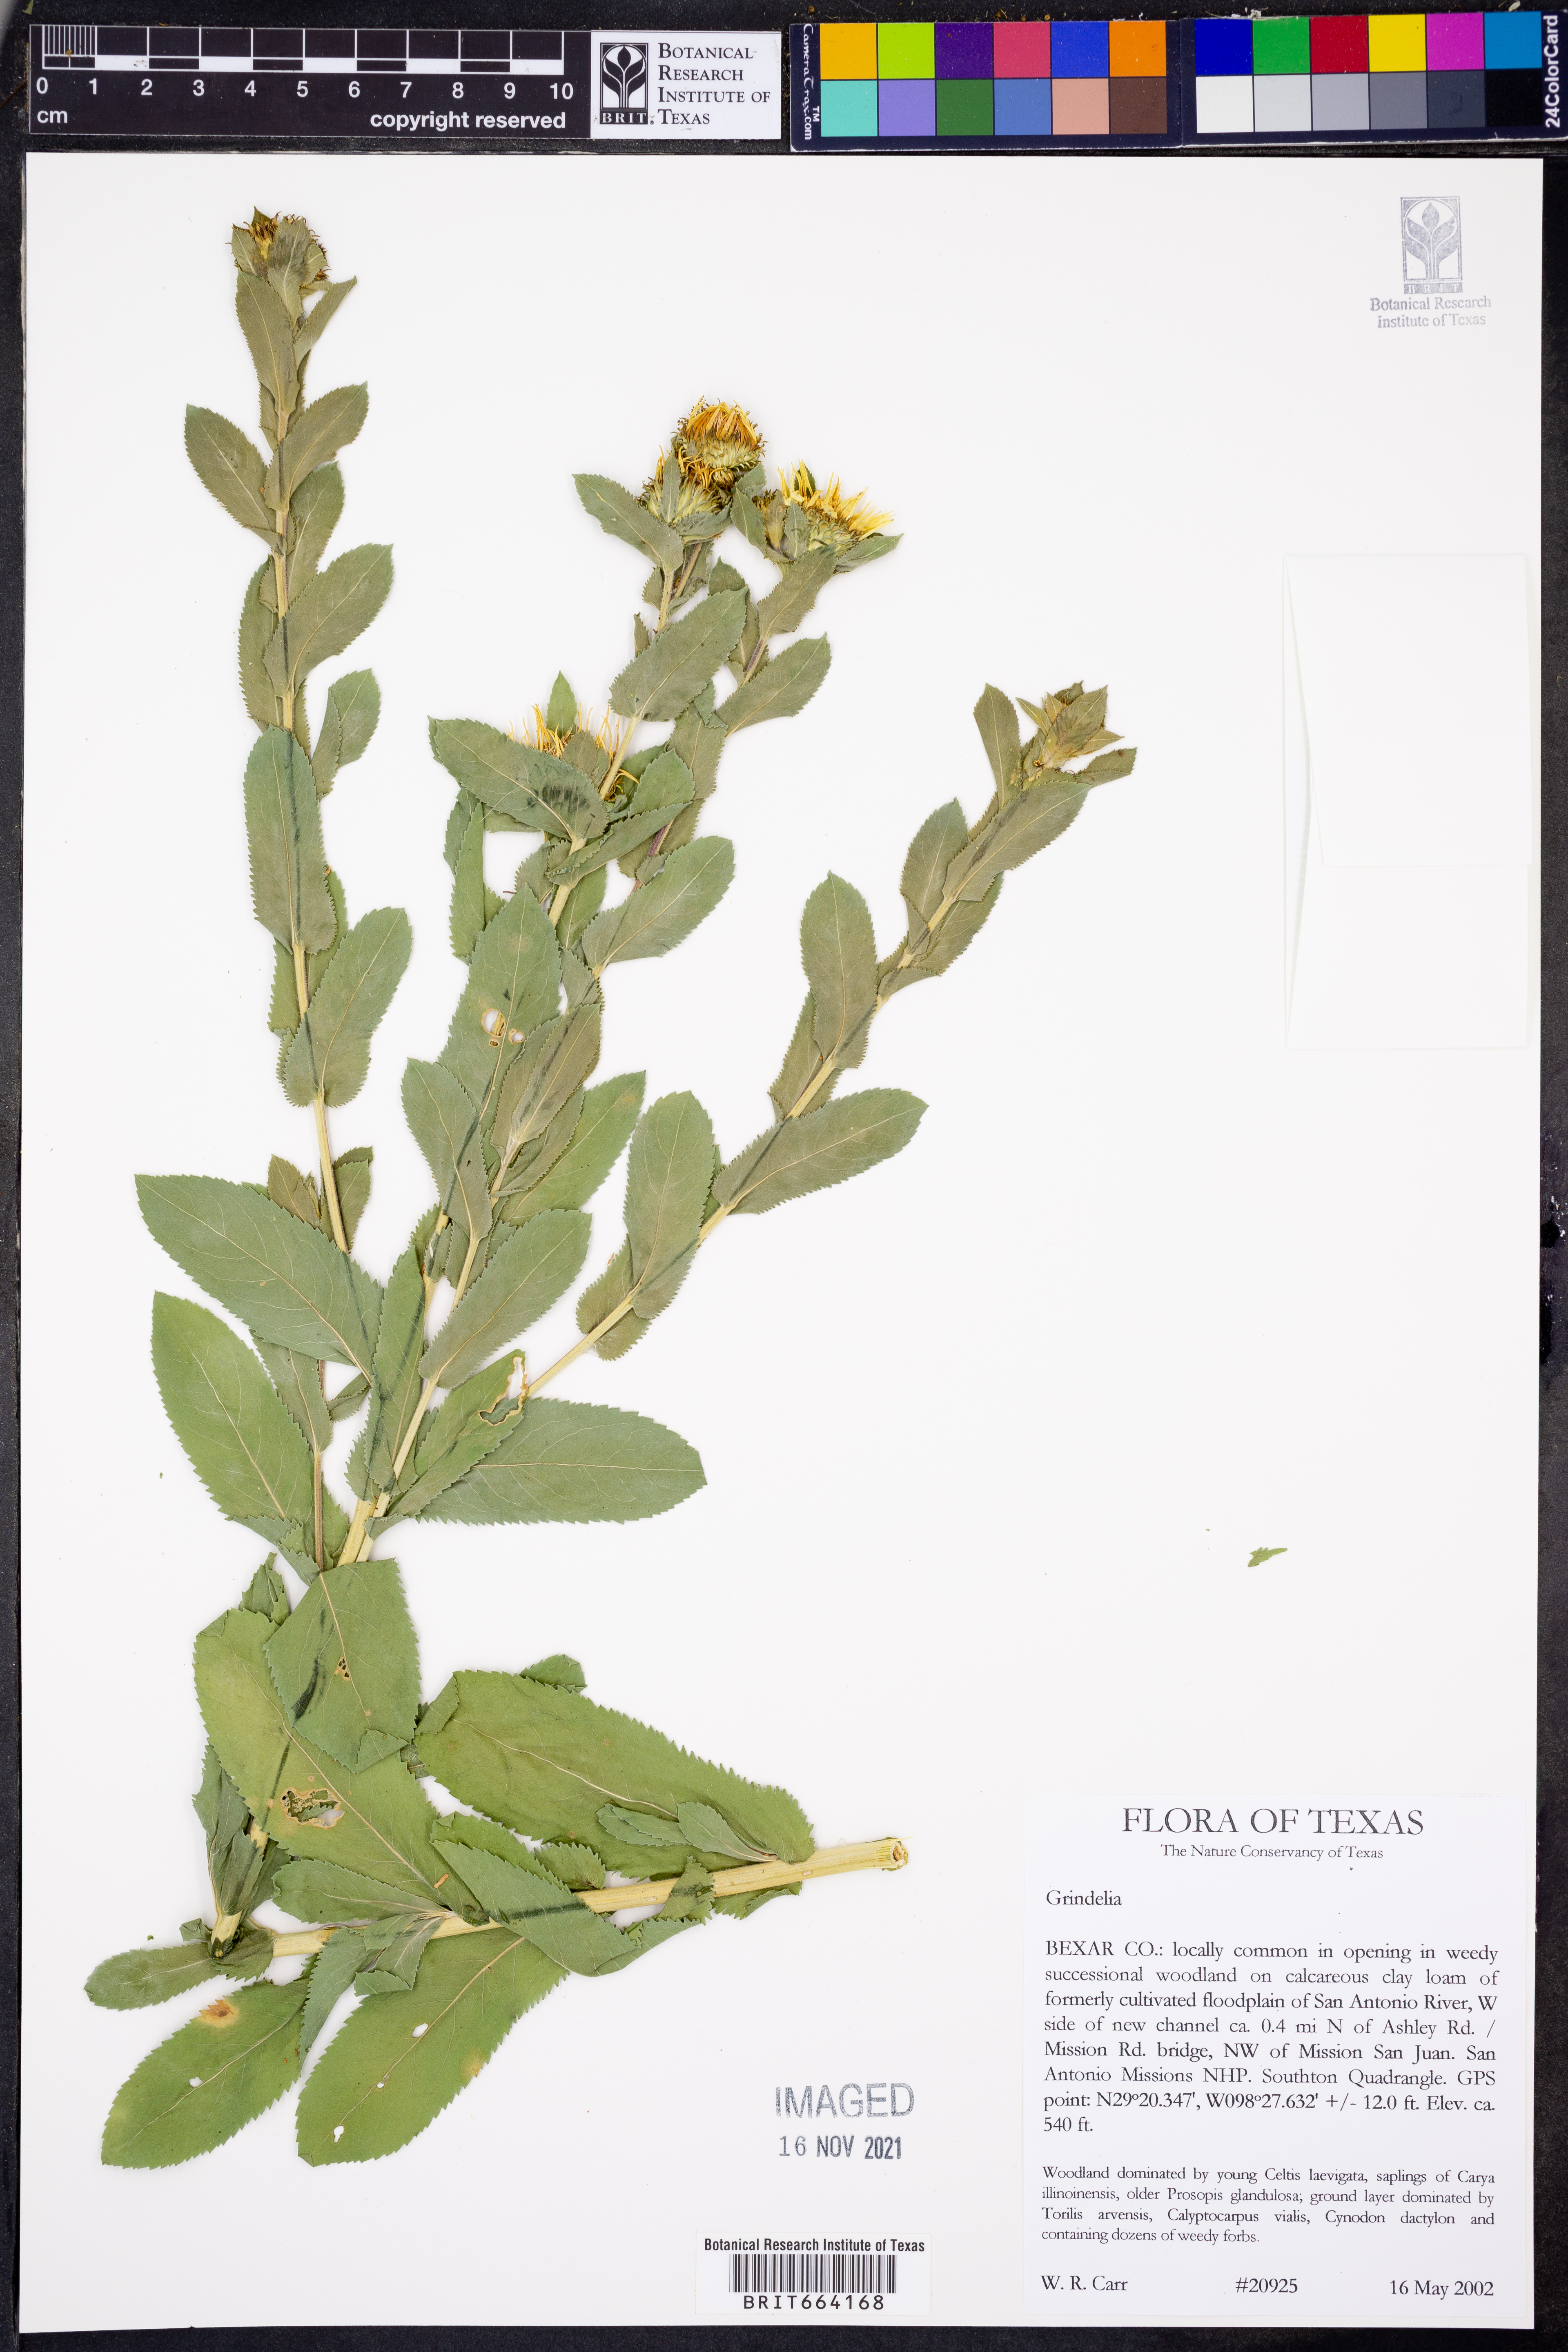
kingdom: Plantae
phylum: Tracheophyta
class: Magnoliopsida
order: Asterales
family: Asteraceae
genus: Grindelia
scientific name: Grindelia
